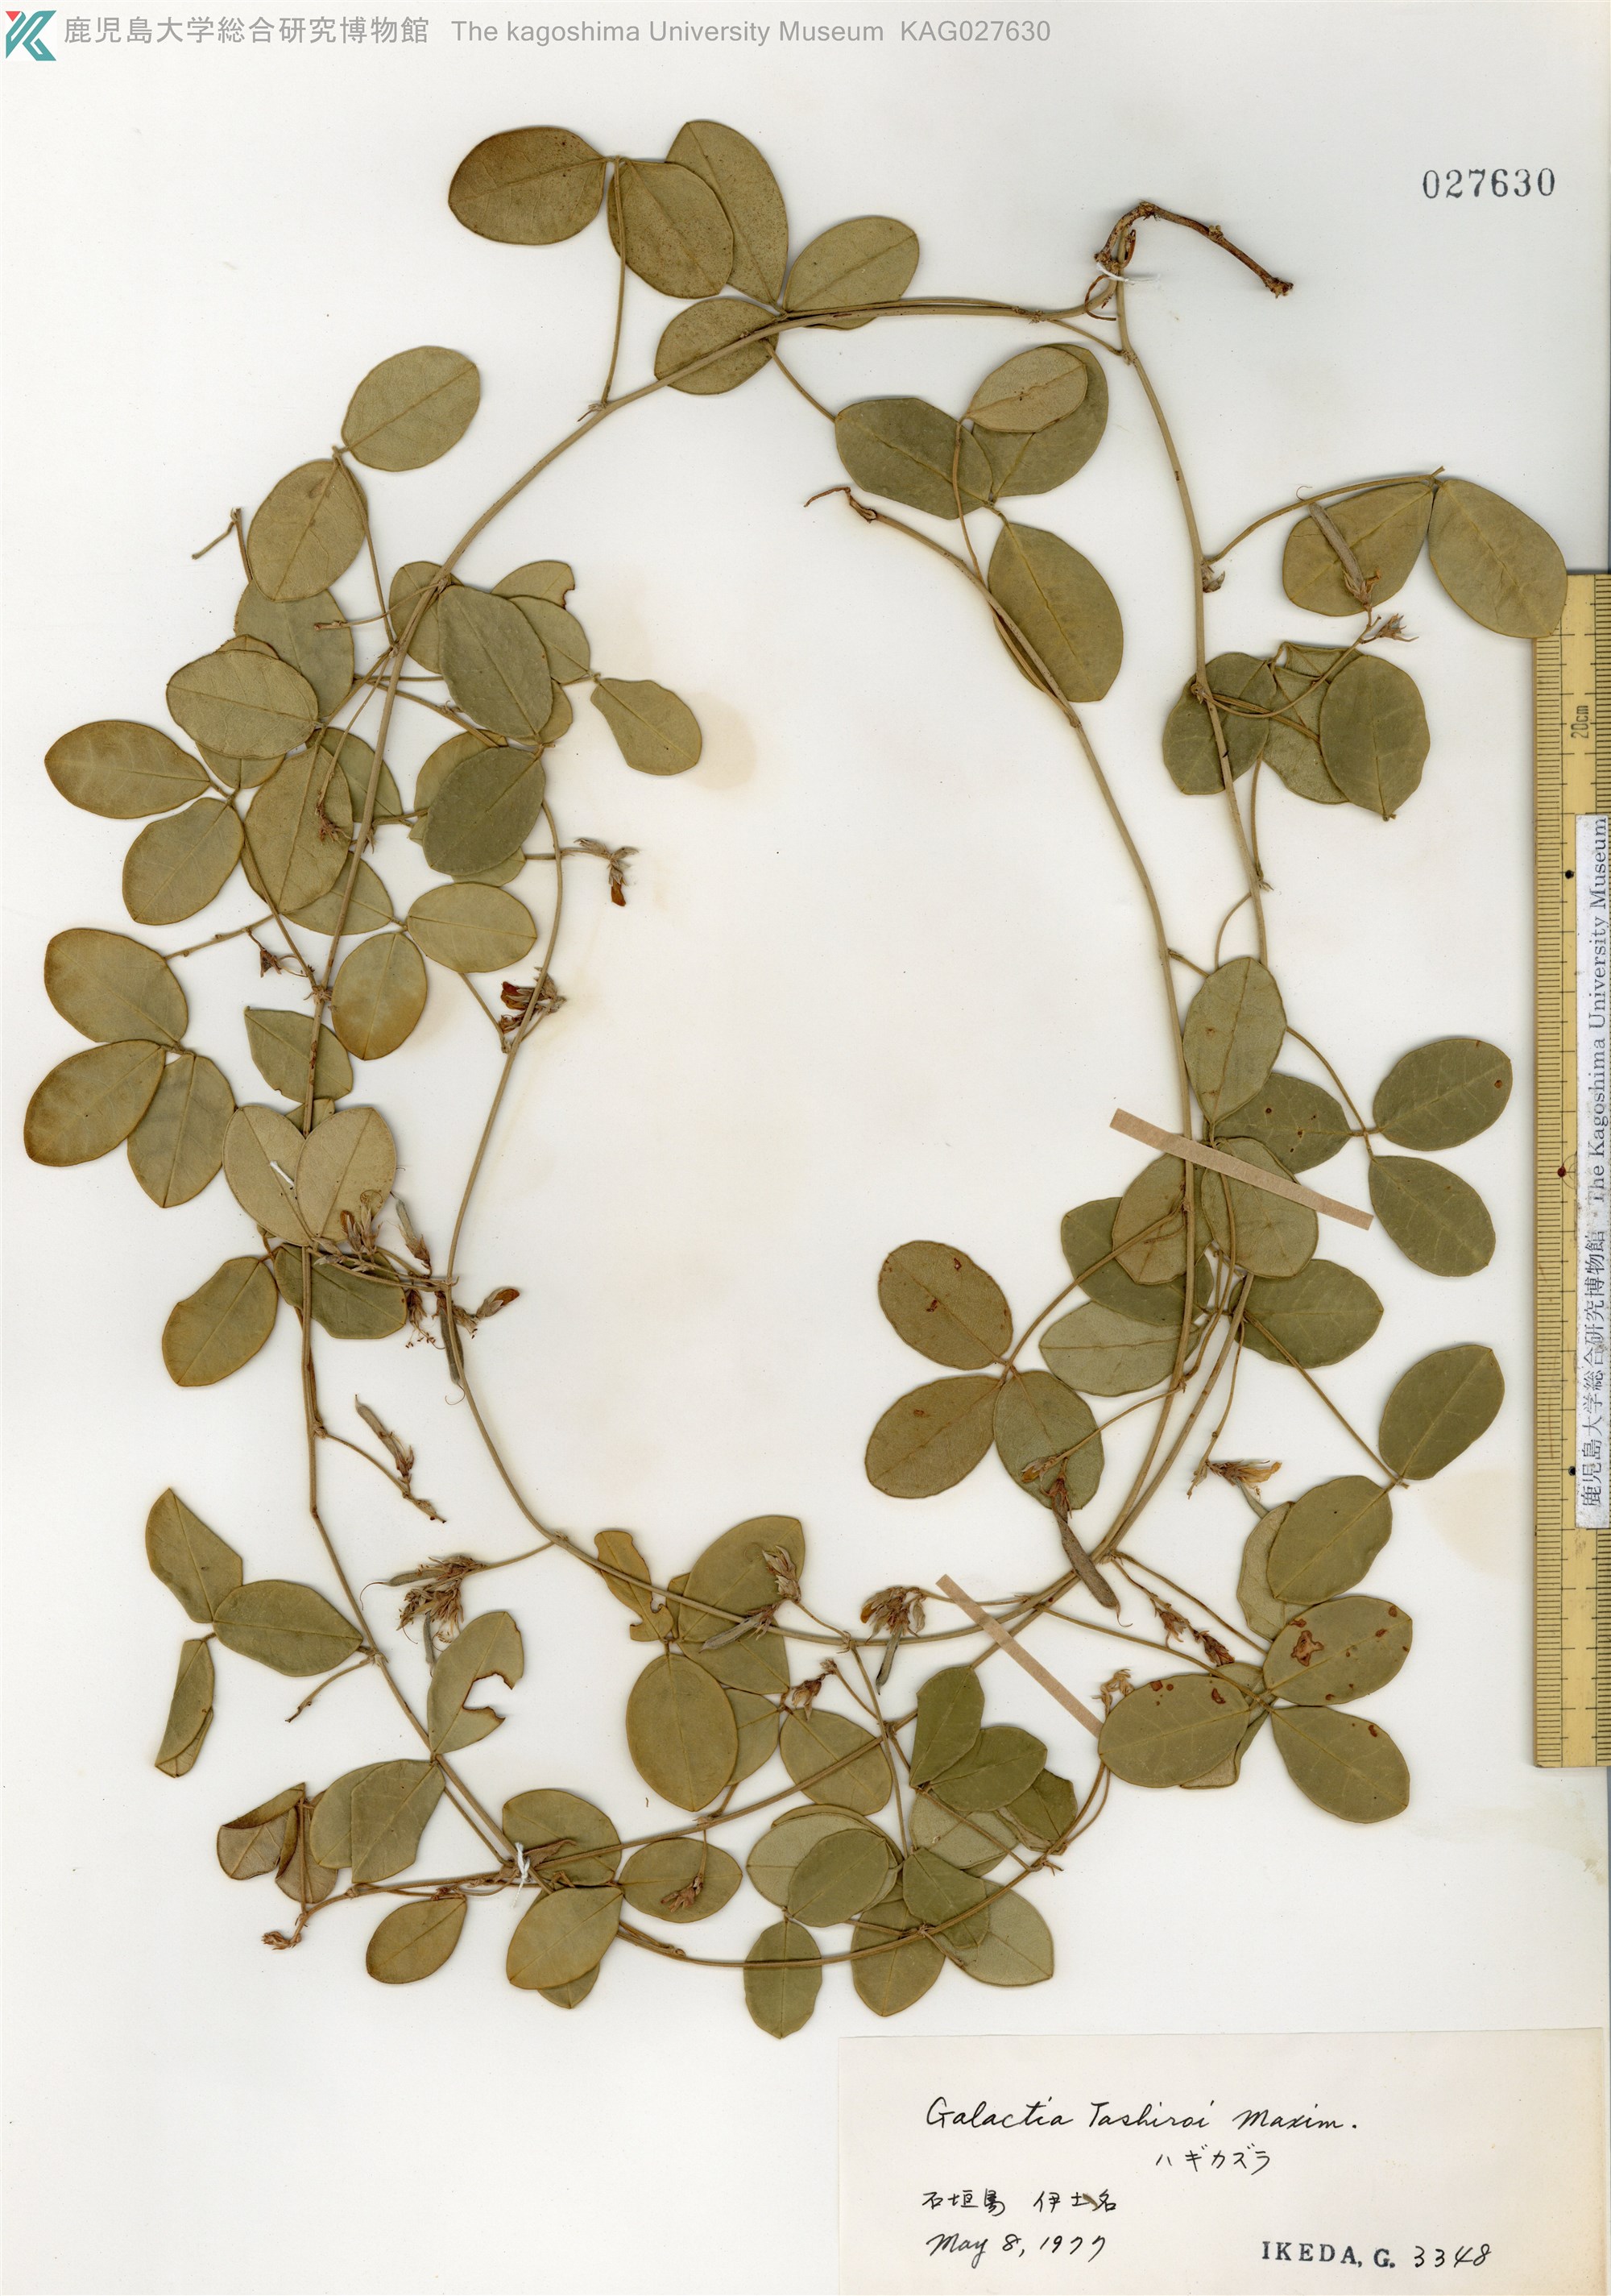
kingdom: Plantae
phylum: Tracheophyta
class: Magnoliopsida
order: Fabales
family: Fabaceae
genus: Galactia
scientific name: Galactia tashiroi
